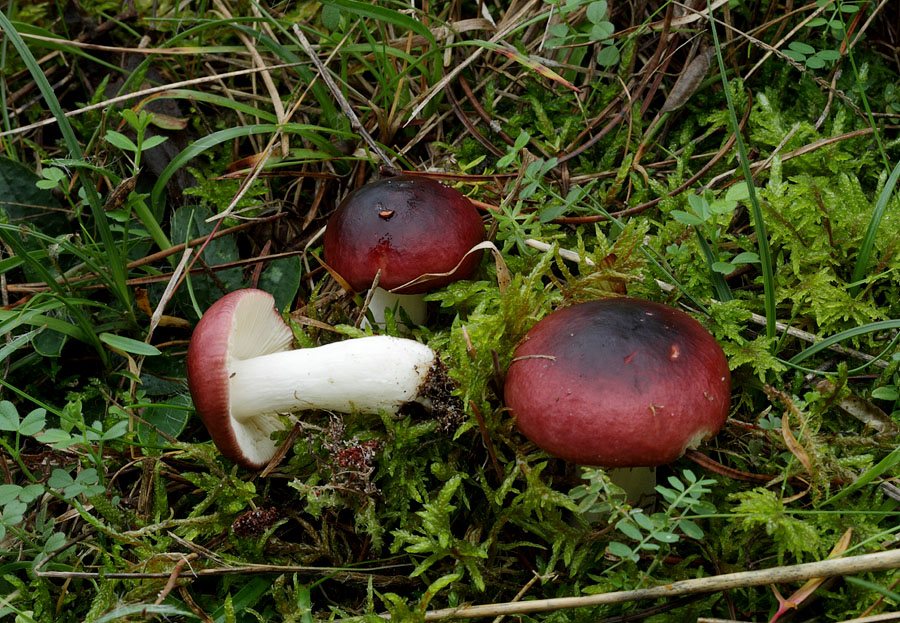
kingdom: Fungi
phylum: Basidiomycota
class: Agaricomycetes
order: Russulales
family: Russulaceae
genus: Russula
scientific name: Russula cessans
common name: fyrre-skørhat
